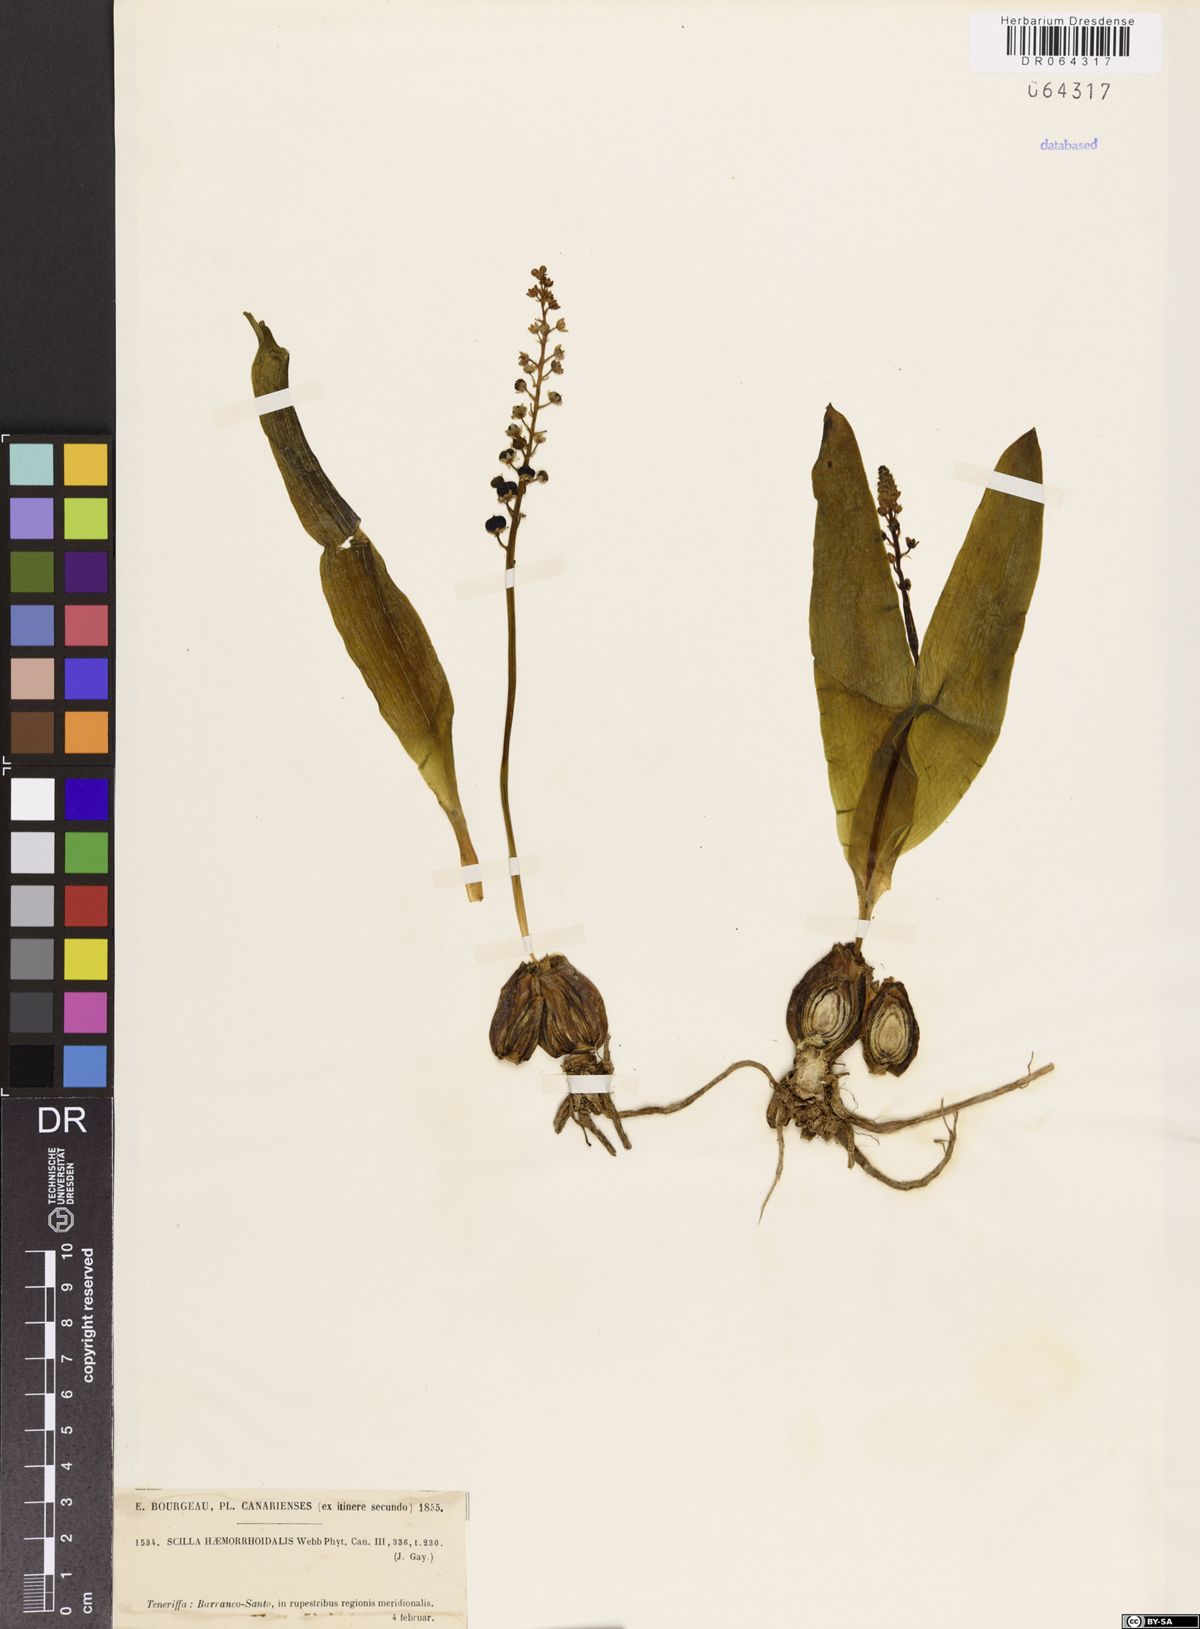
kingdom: Plantae
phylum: Tracheophyta
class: Liliopsida
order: Asparagales
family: Asparagaceae
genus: Scilla
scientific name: Scilla haemorrhoidalis
